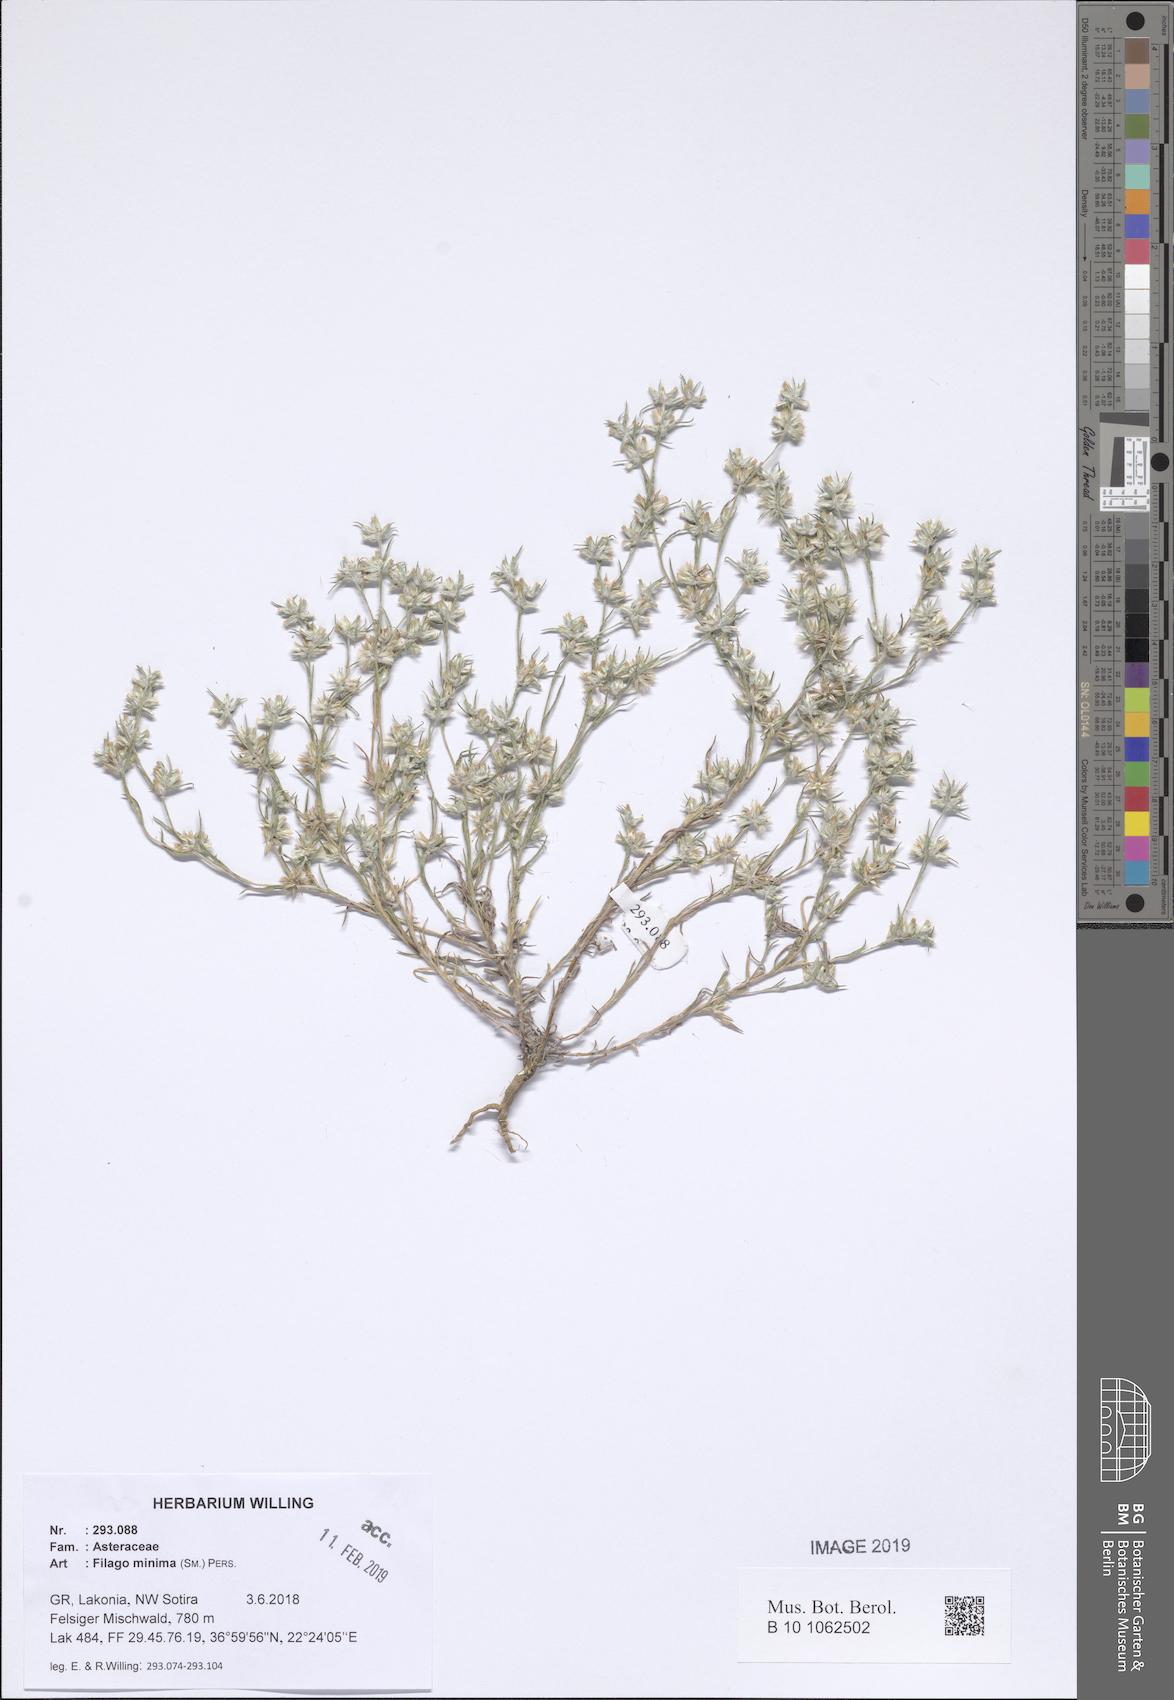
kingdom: Plantae
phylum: Tracheophyta
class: Magnoliopsida
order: Asterales
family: Asteraceae
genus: Logfia
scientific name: Logfia minima
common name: Little cottonrose
